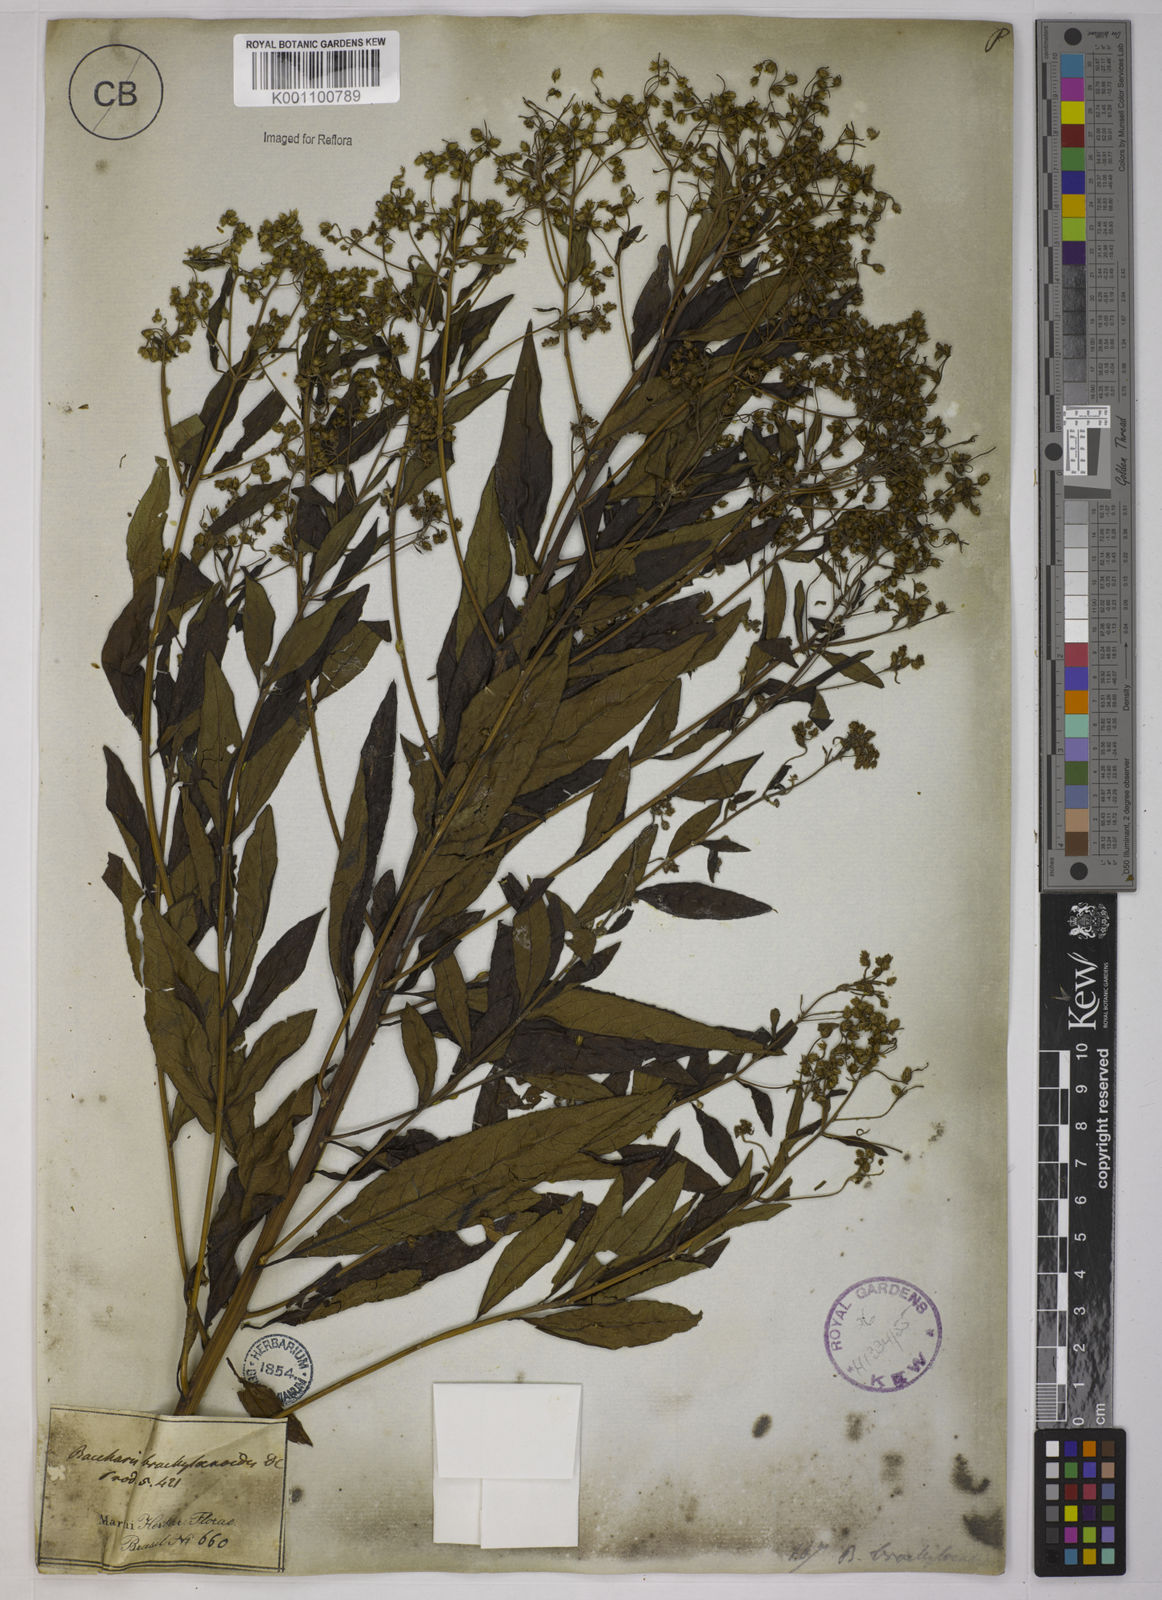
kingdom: Plantae
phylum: Tracheophyta
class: Magnoliopsida
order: Asterales
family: Asteraceae
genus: Baccharis
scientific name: Baccharis oblongifolia
